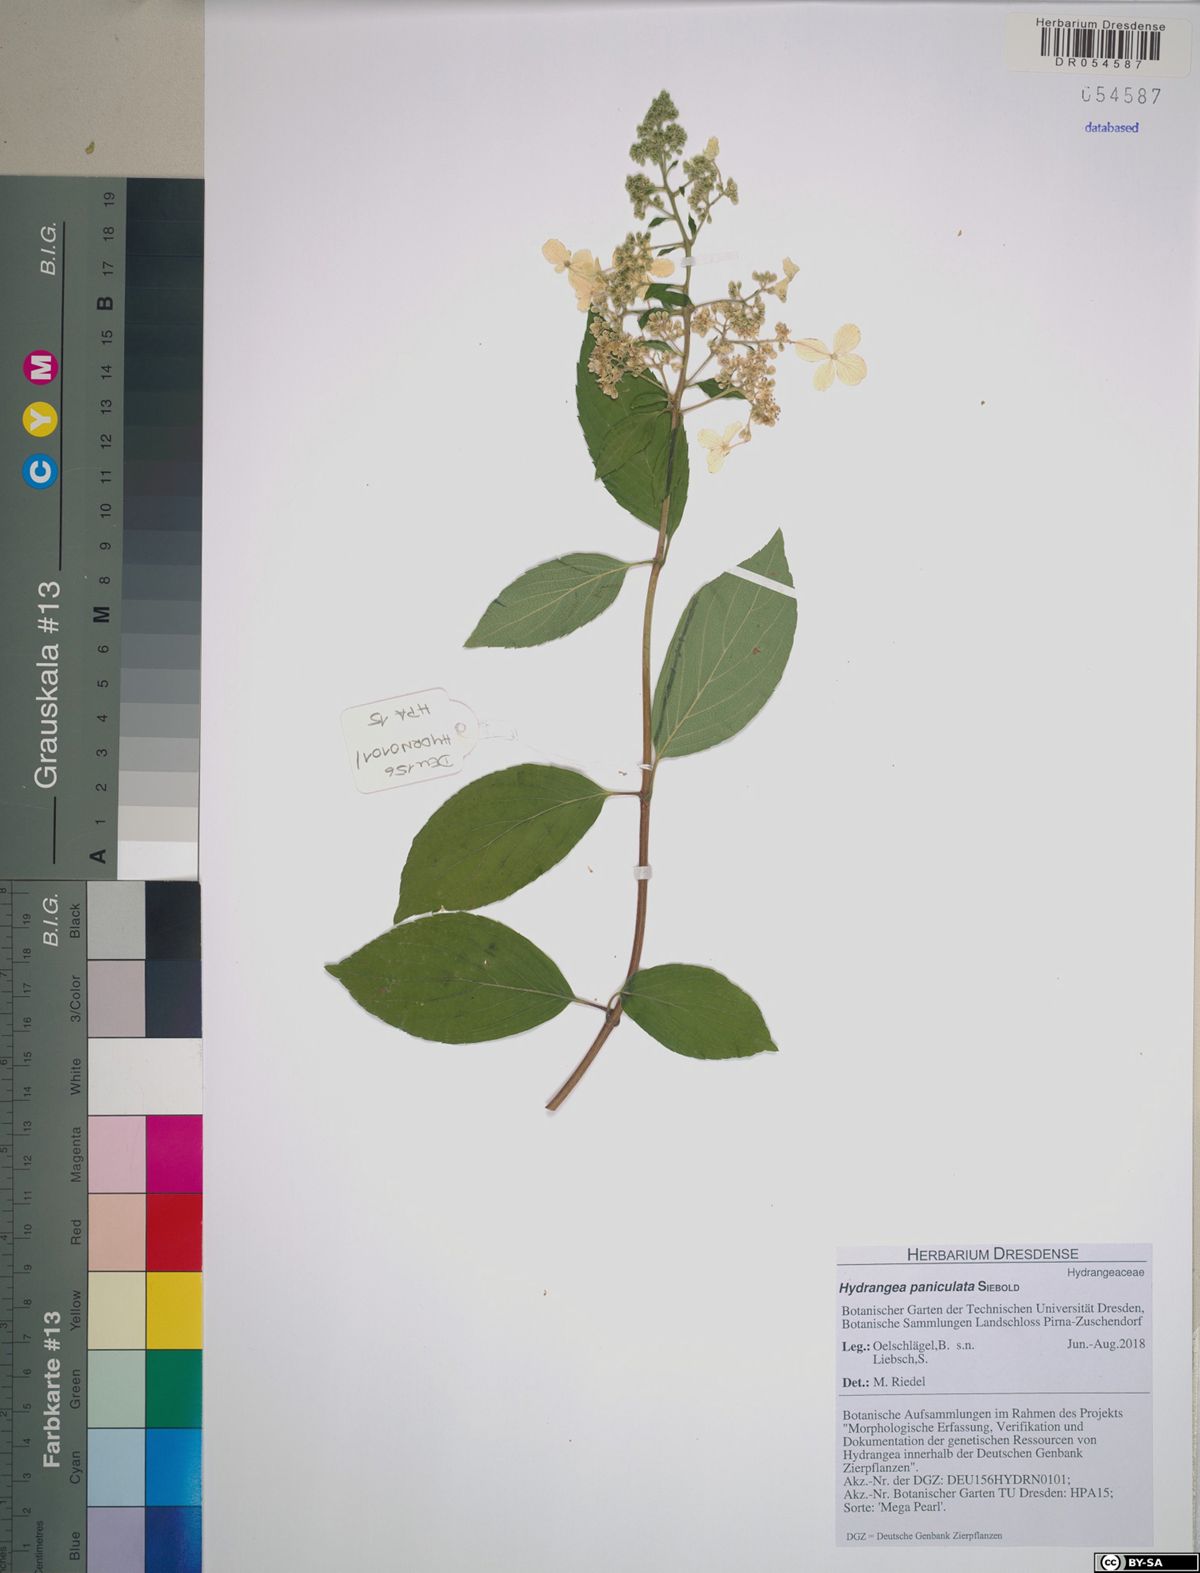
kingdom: Plantae
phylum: Tracheophyta
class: Magnoliopsida
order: Cornales
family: Hydrangeaceae
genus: Hydrangea
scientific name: Hydrangea paniculata
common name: Panicled hydrangea
